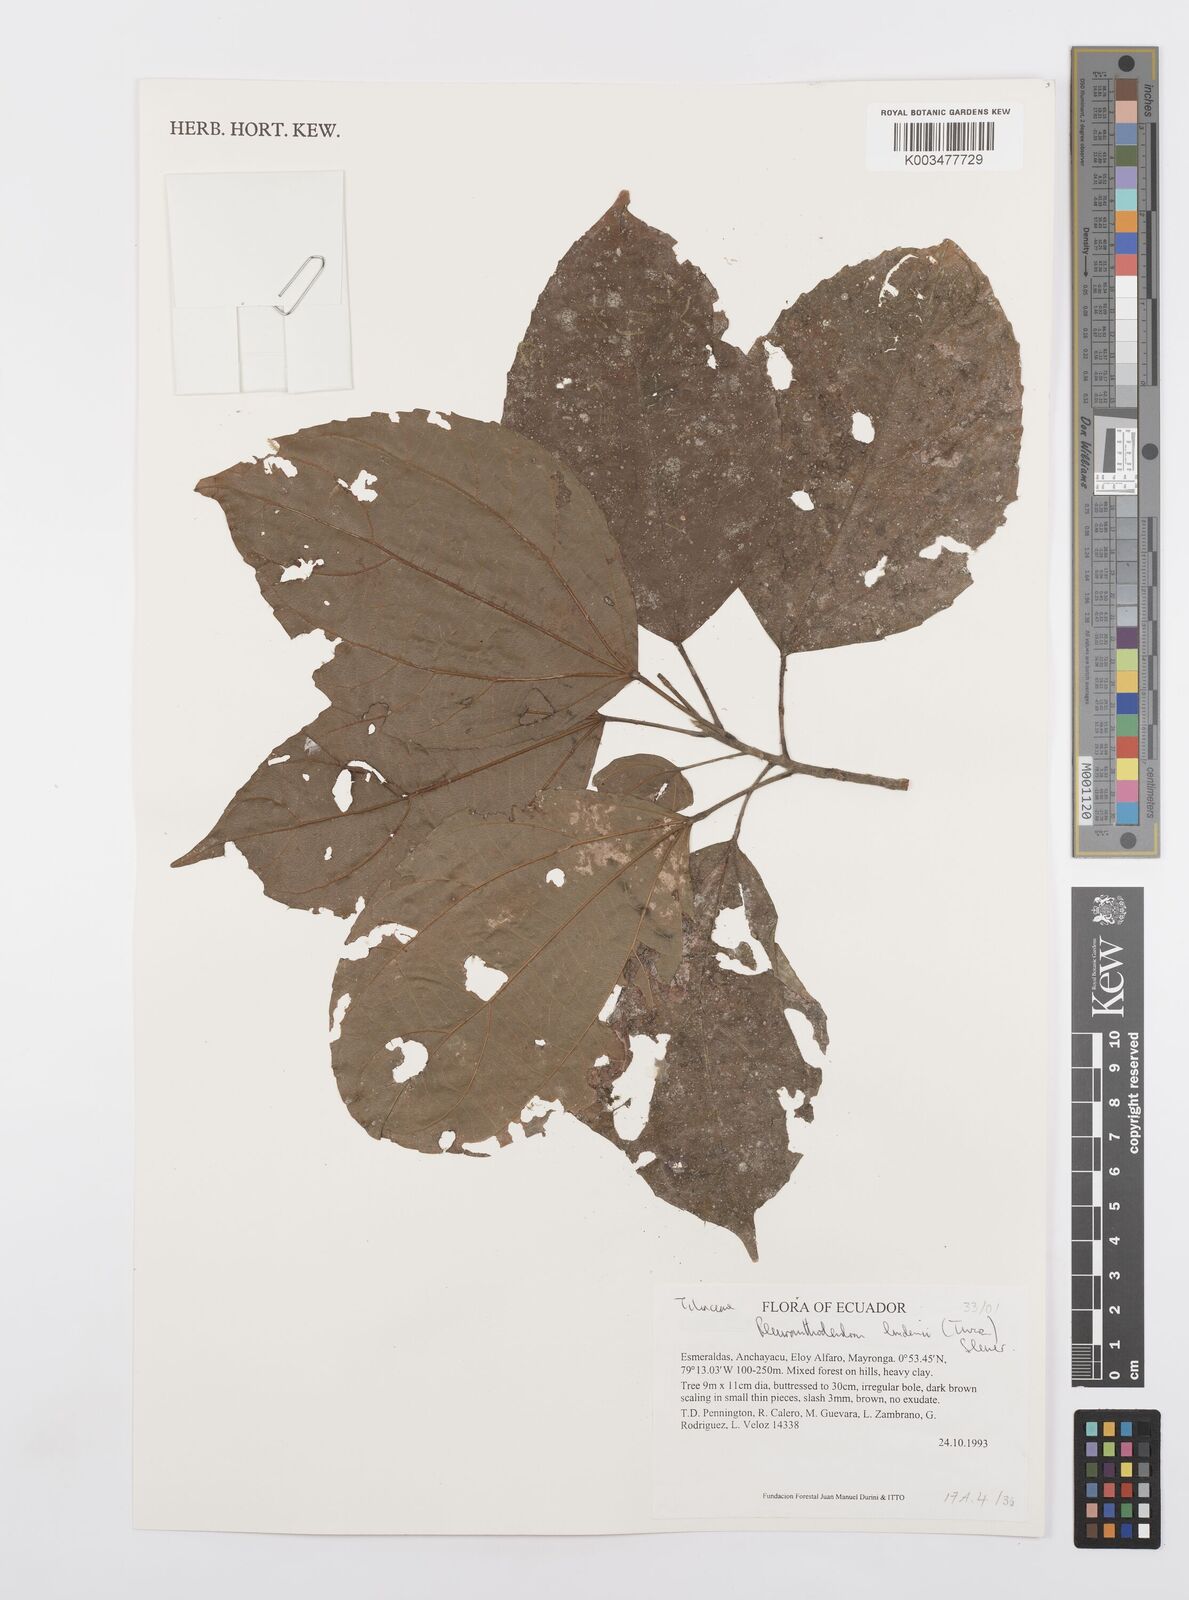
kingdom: Plantae
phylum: Tracheophyta
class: Magnoliopsida
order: Malpighiales
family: Salicaceae
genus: Pleuranthodendron
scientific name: Pleuranthodendron lindenii
